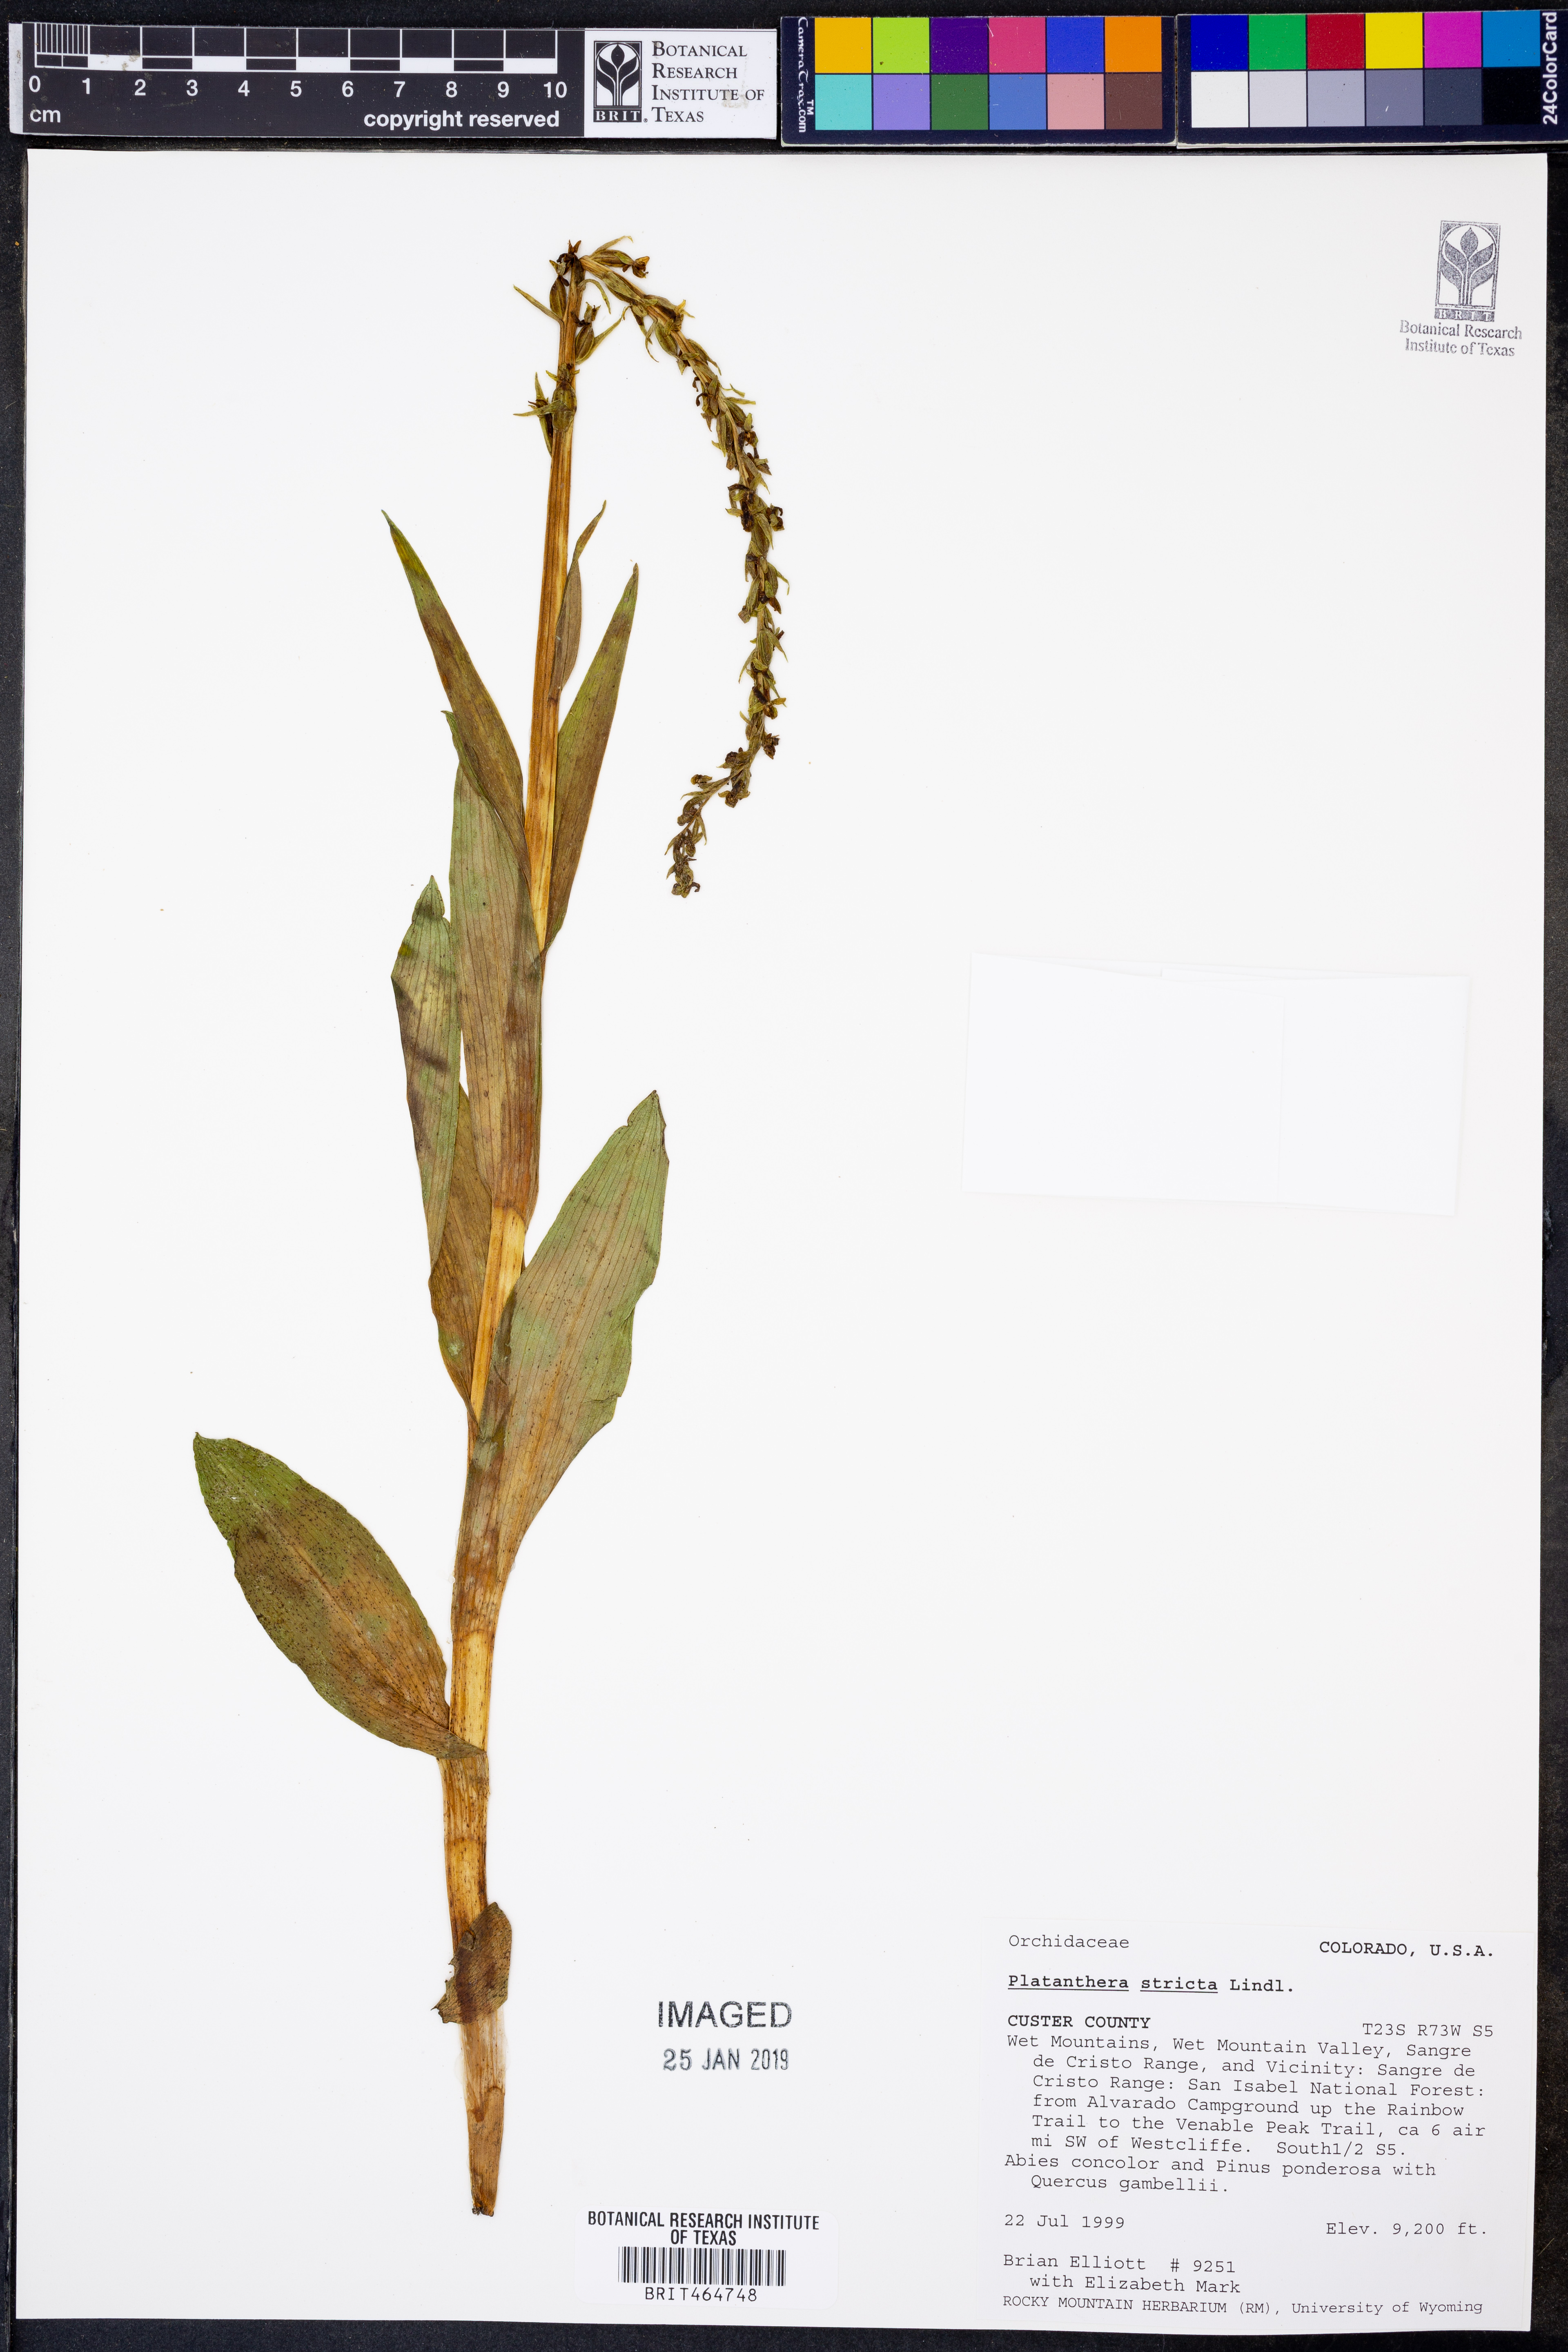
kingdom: Plantae
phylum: Tracheophyta
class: Liliopsida
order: Asparagales
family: Orchidaceae
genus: Platanthera
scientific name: Platanthera stricta
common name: Slender bog orchid
